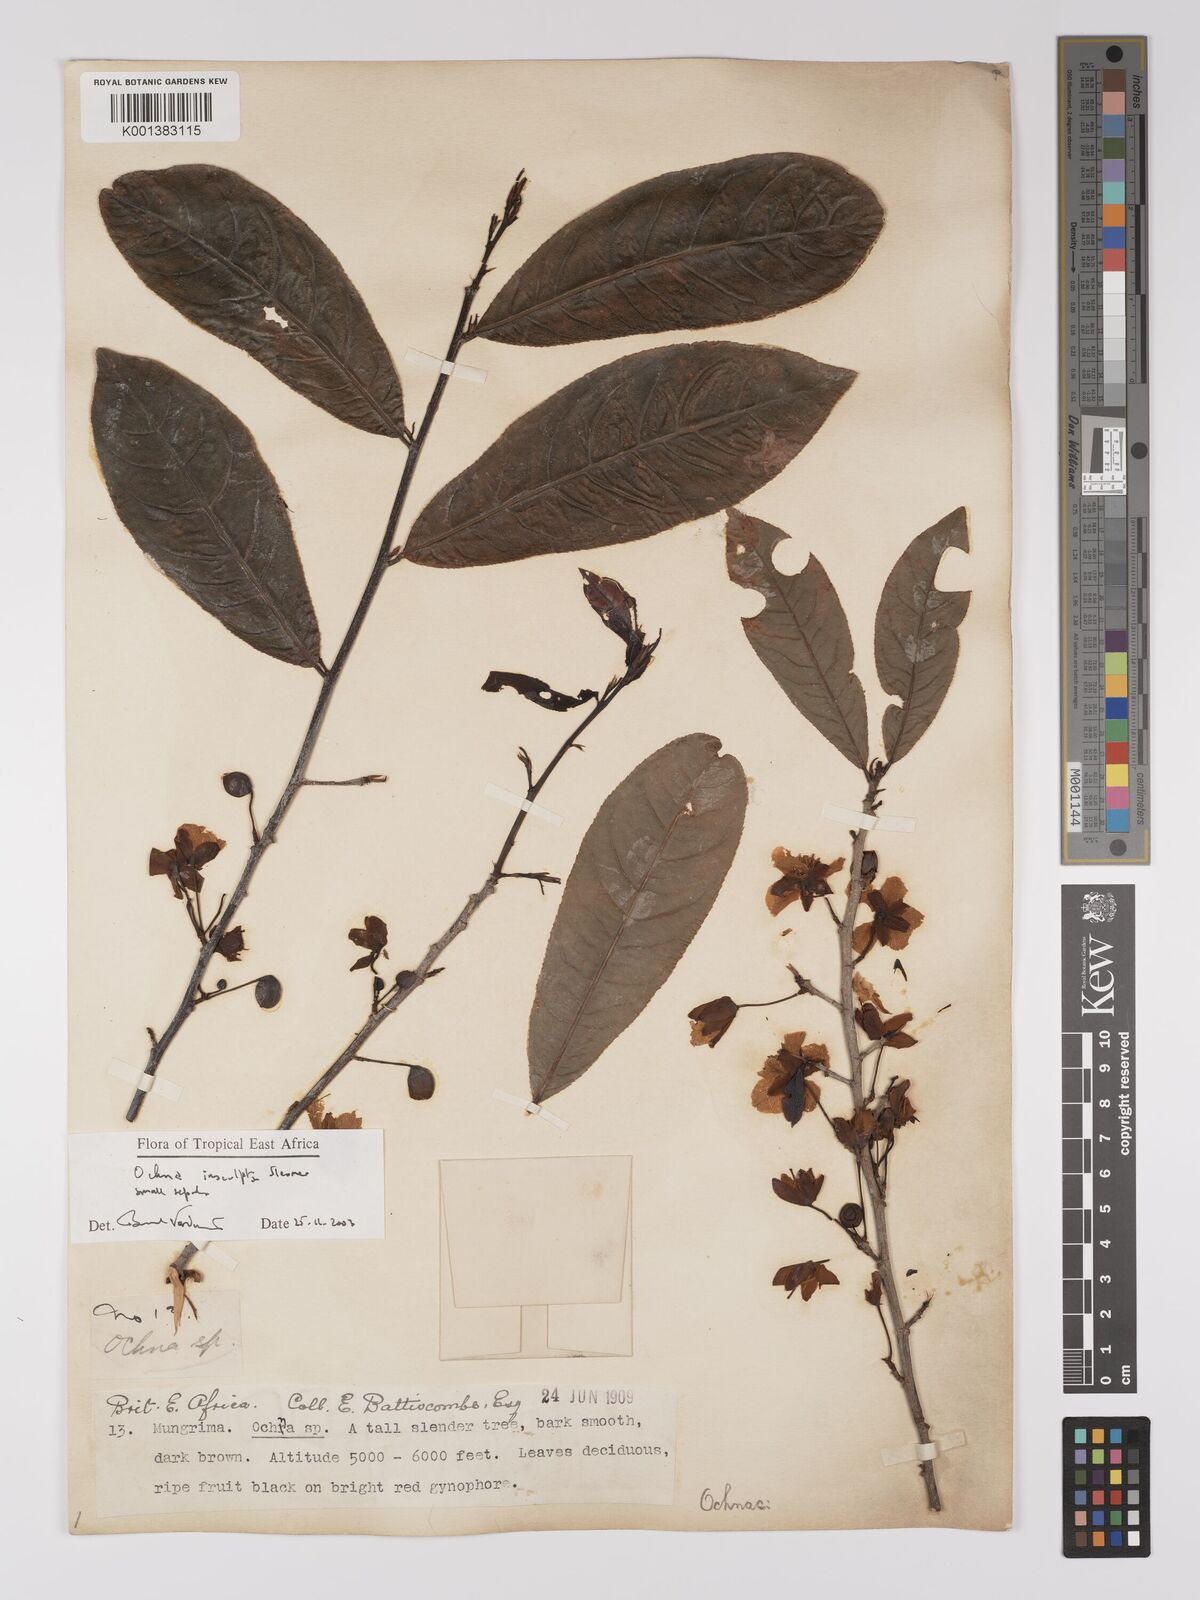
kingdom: Plantae
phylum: Tracheophyta
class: Magnoliopsida
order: Malpighiales
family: Ochnaceae
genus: Ochna
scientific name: Ochna insculpta
